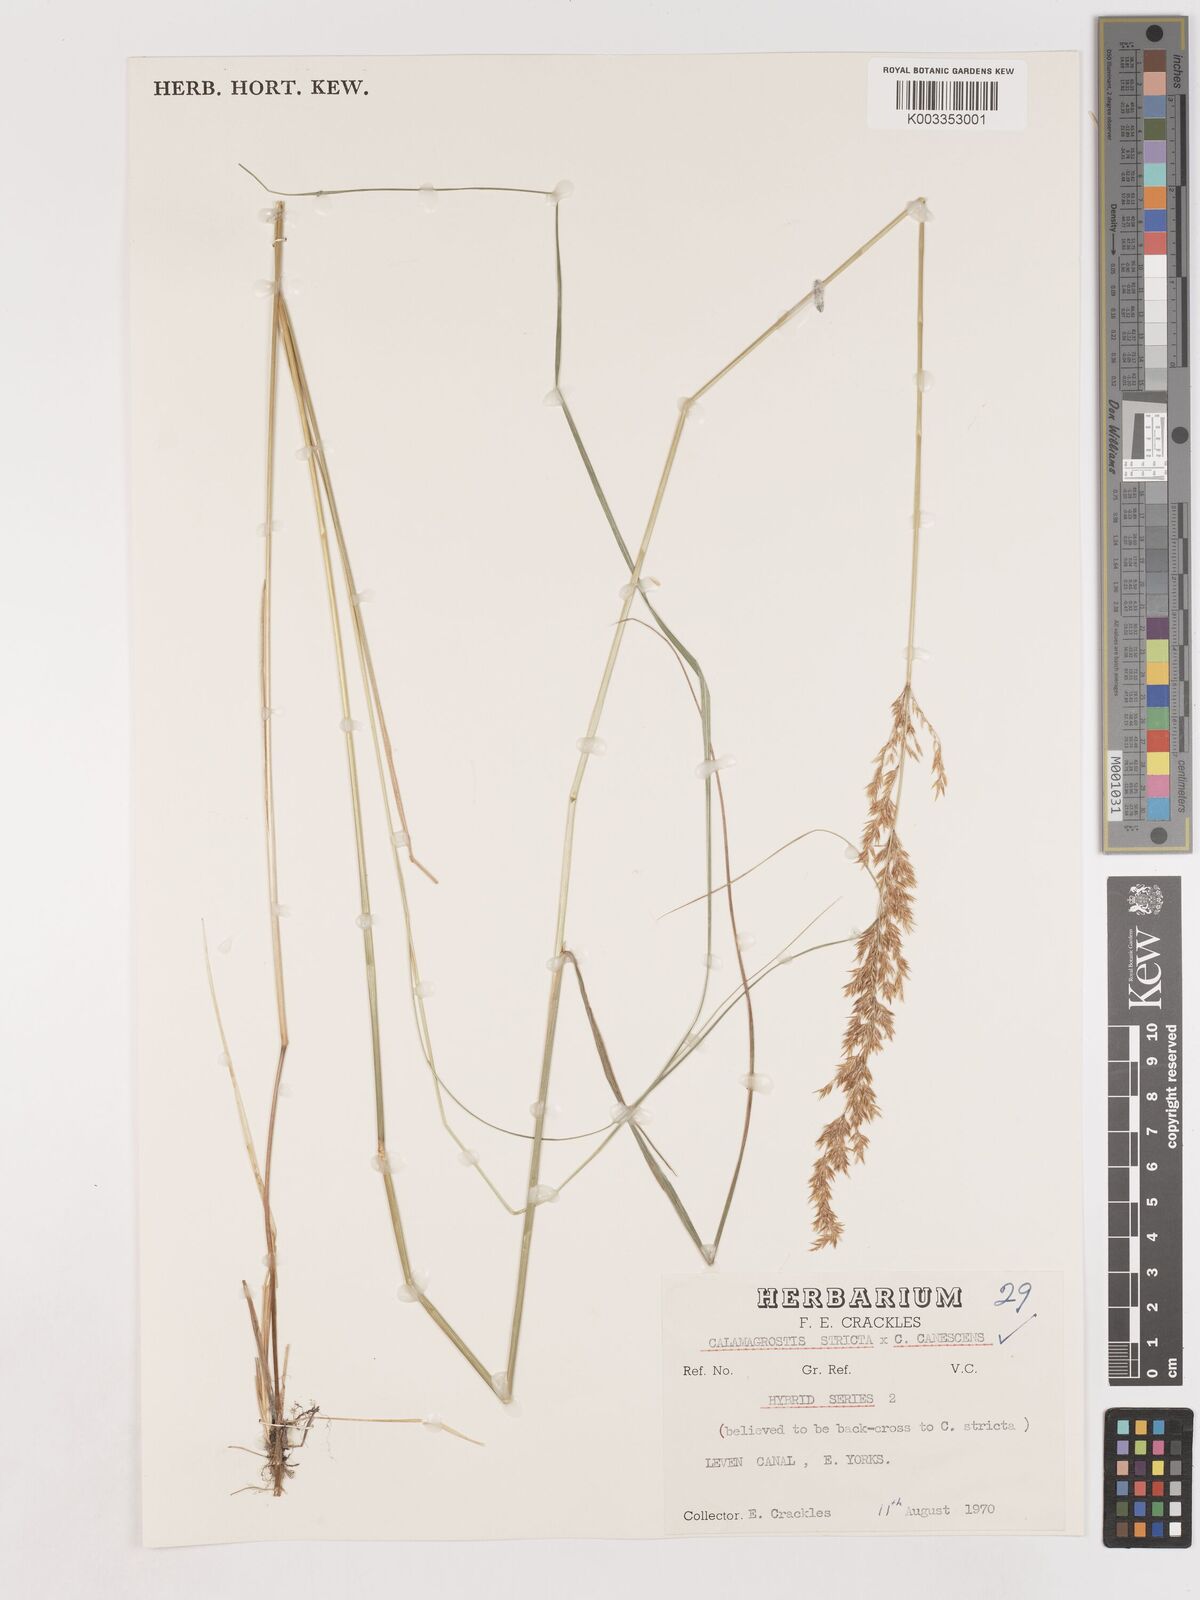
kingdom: Plantae
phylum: Tracheophyta
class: Liliopsida
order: Poales
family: Poaceae
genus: Calamagrostis
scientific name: Calamagrostis canescens
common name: Purple small-reed
